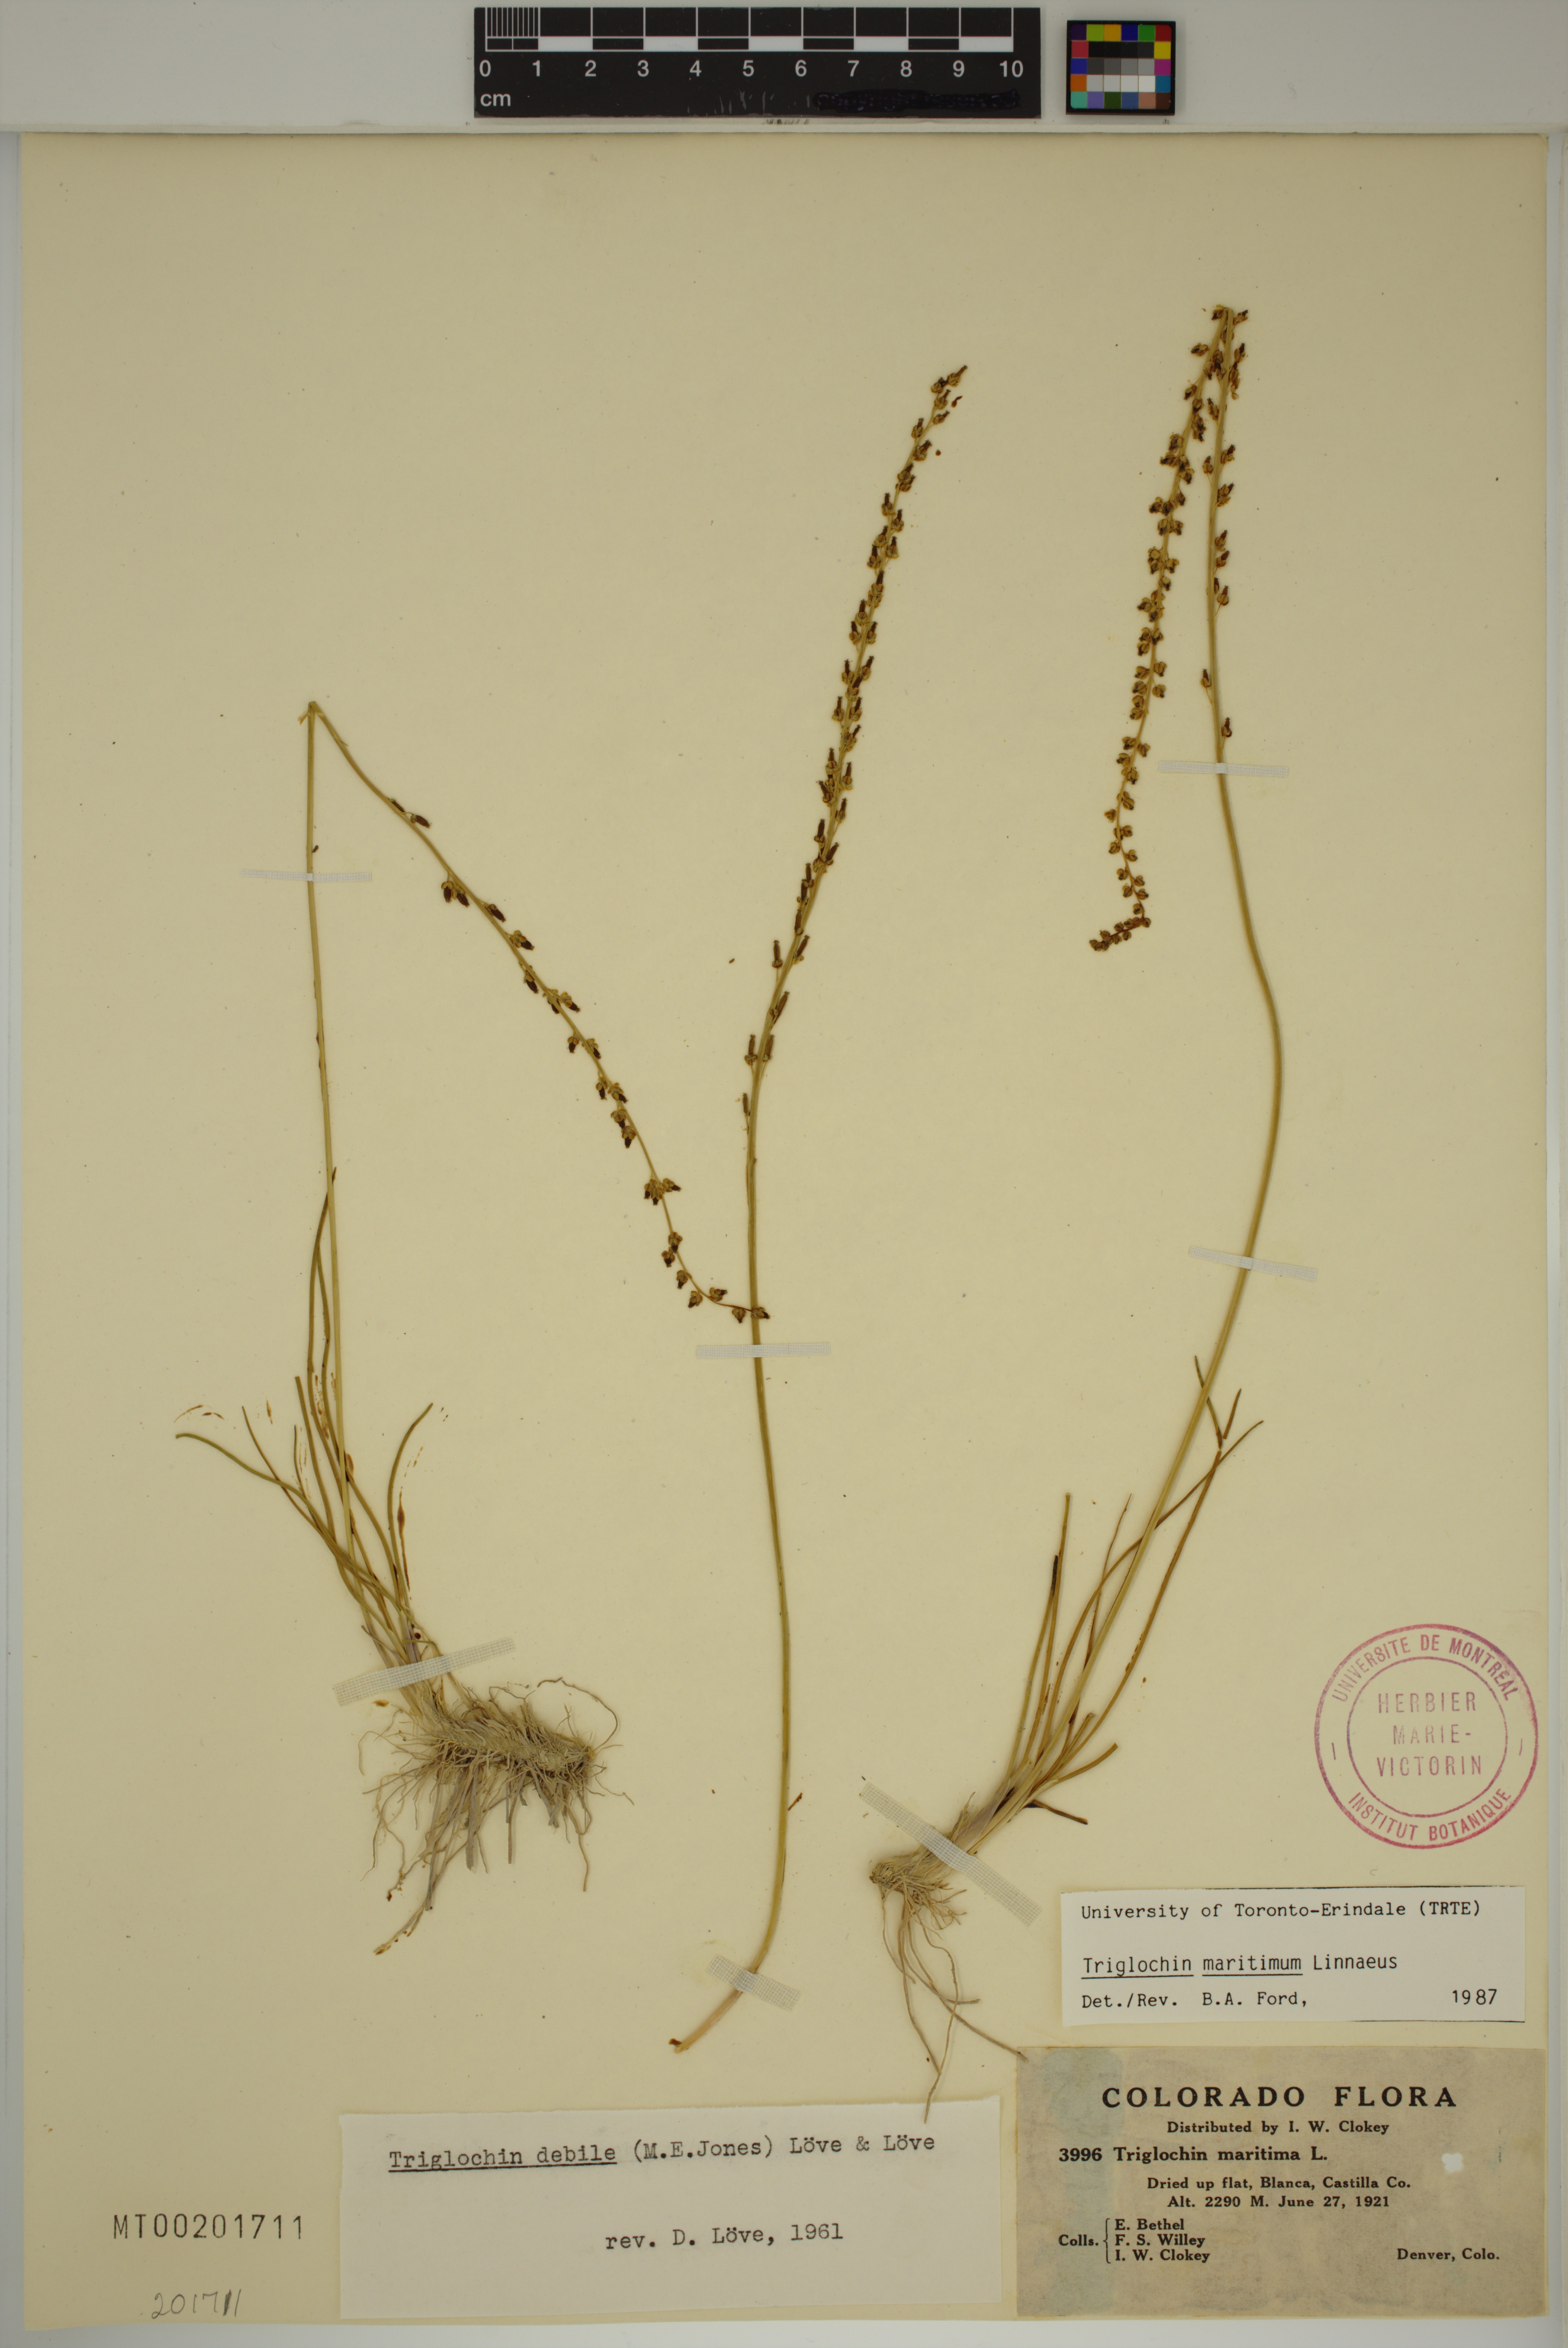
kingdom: Plantae
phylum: Tracheophyta
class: Liliopsida
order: Alismatales
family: Juncaginaceae
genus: Triglochin
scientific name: Triglochin maritima
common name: Sea arrowgrass
